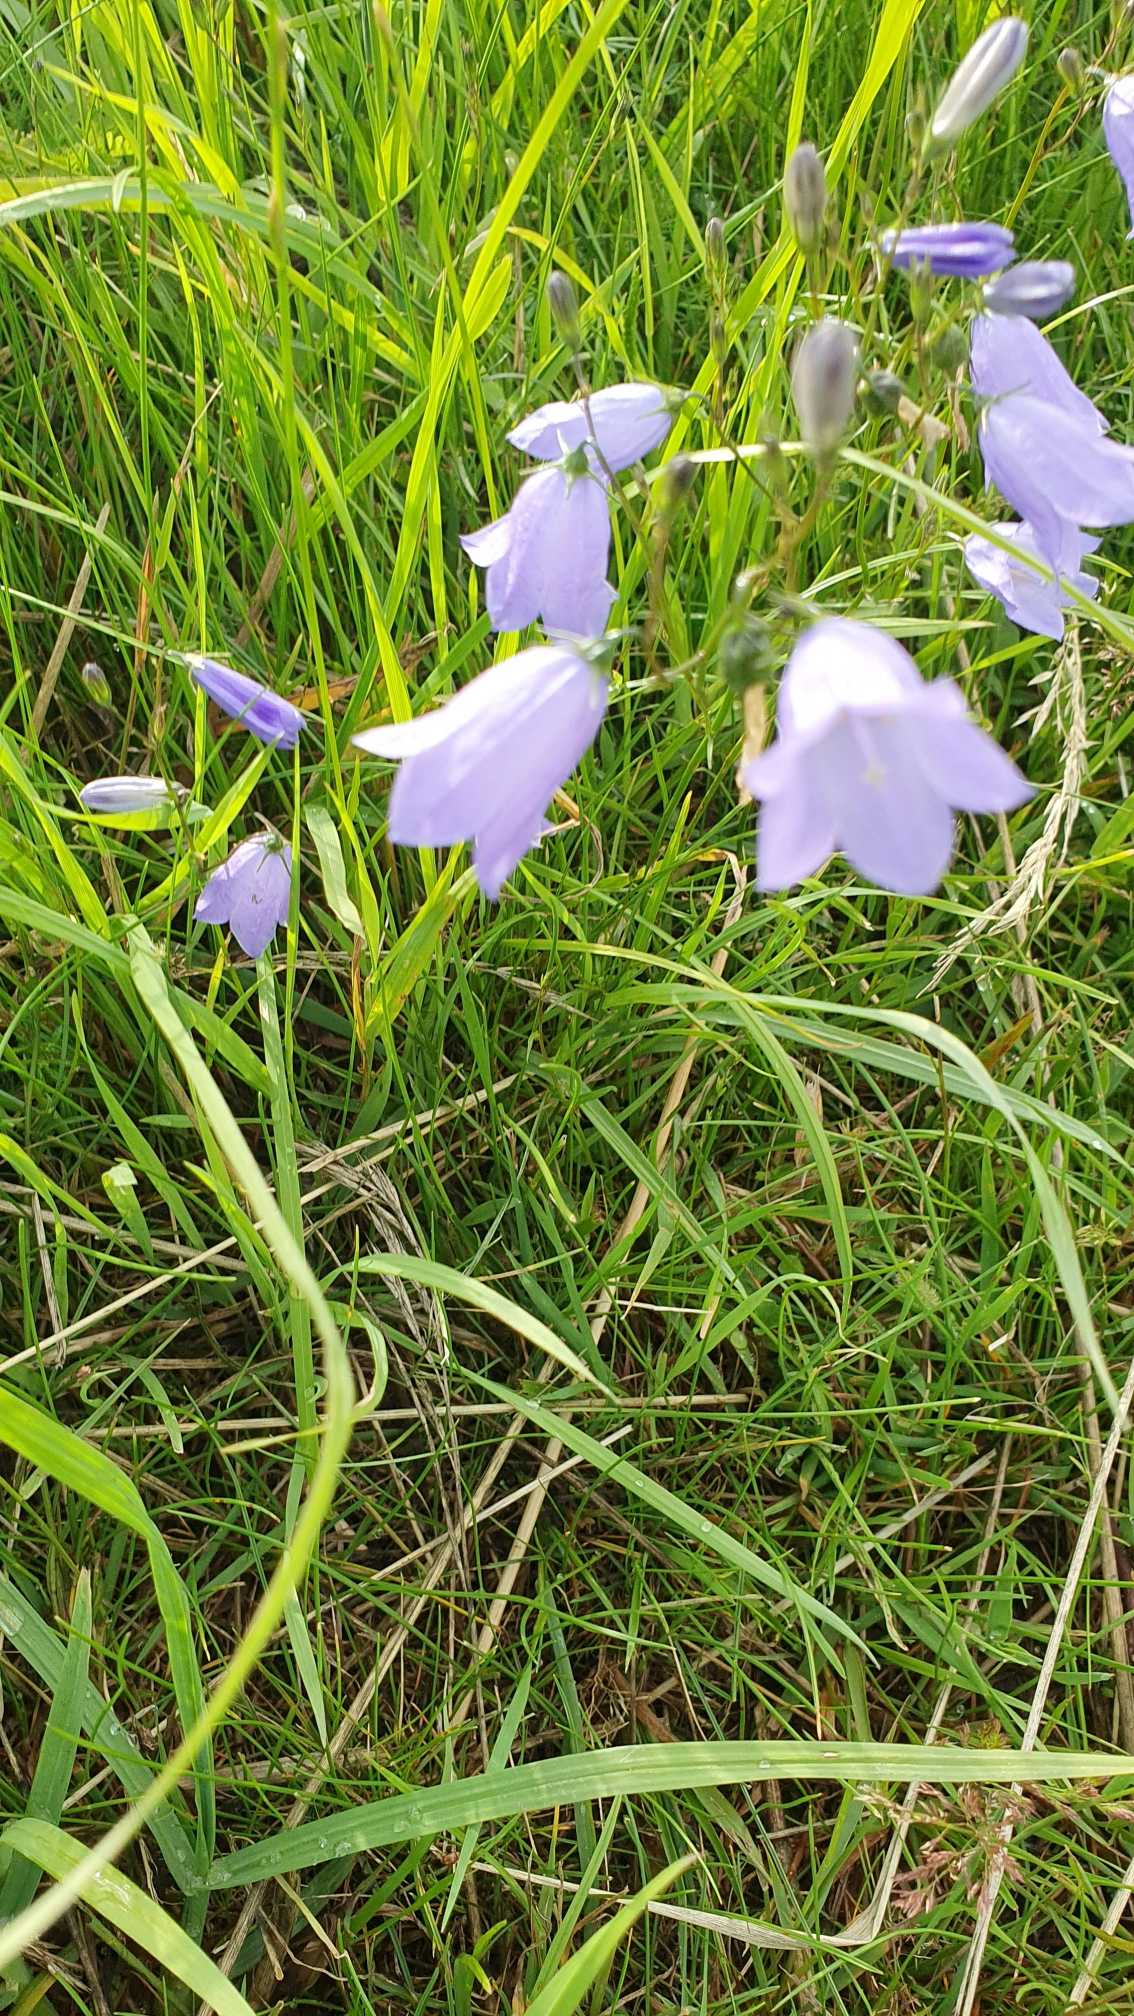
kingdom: Plantae
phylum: Tracheophyta
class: Magnoliopsida
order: Asterales
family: Campanulaceae
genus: Campanula
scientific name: Campanula rotundifolia
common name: Liden klokke
